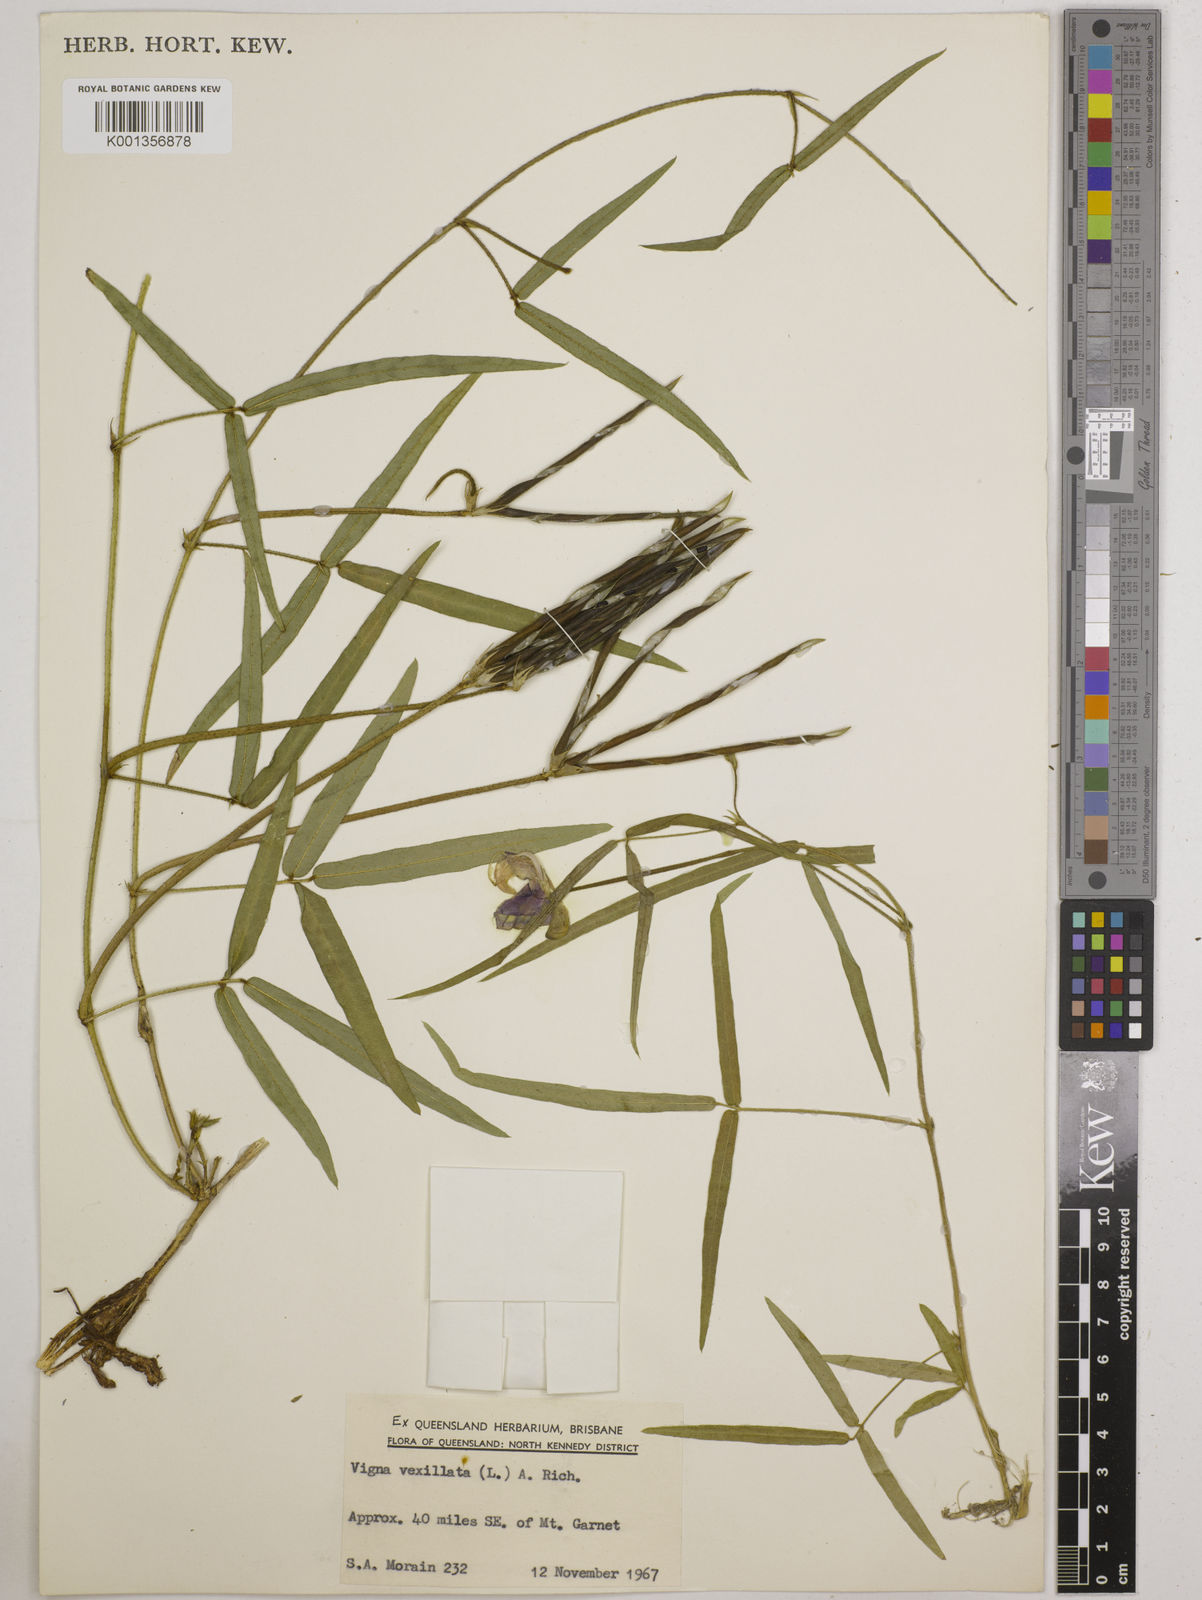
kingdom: Plantae
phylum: Tracheophyta
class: Magnoliopsida
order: Fabales
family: Fabaceae
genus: Vigna
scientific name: Vigna vexillata
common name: Zombi pea
